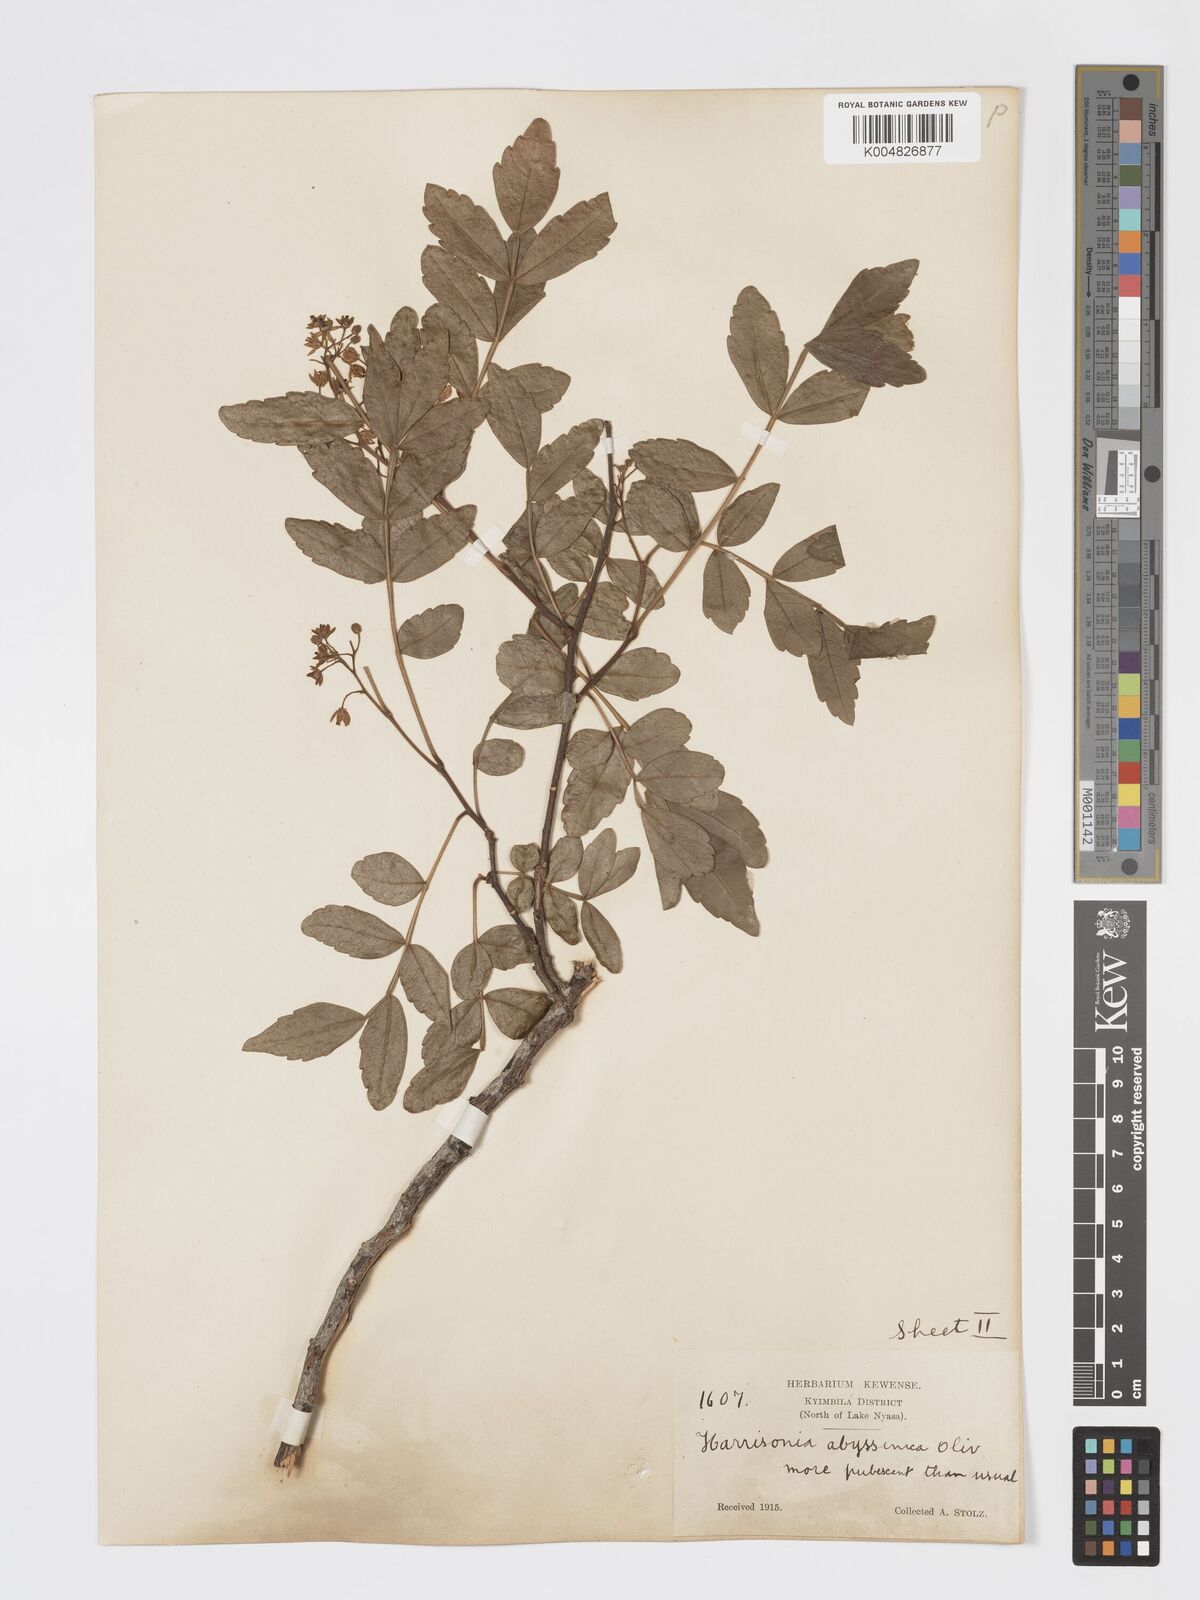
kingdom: Plantae
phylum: Tracheophyta
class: Magnoliopsida
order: Sapindales
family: Rutaceae
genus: Harrisonia
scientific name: Harrisonia abyssinica
